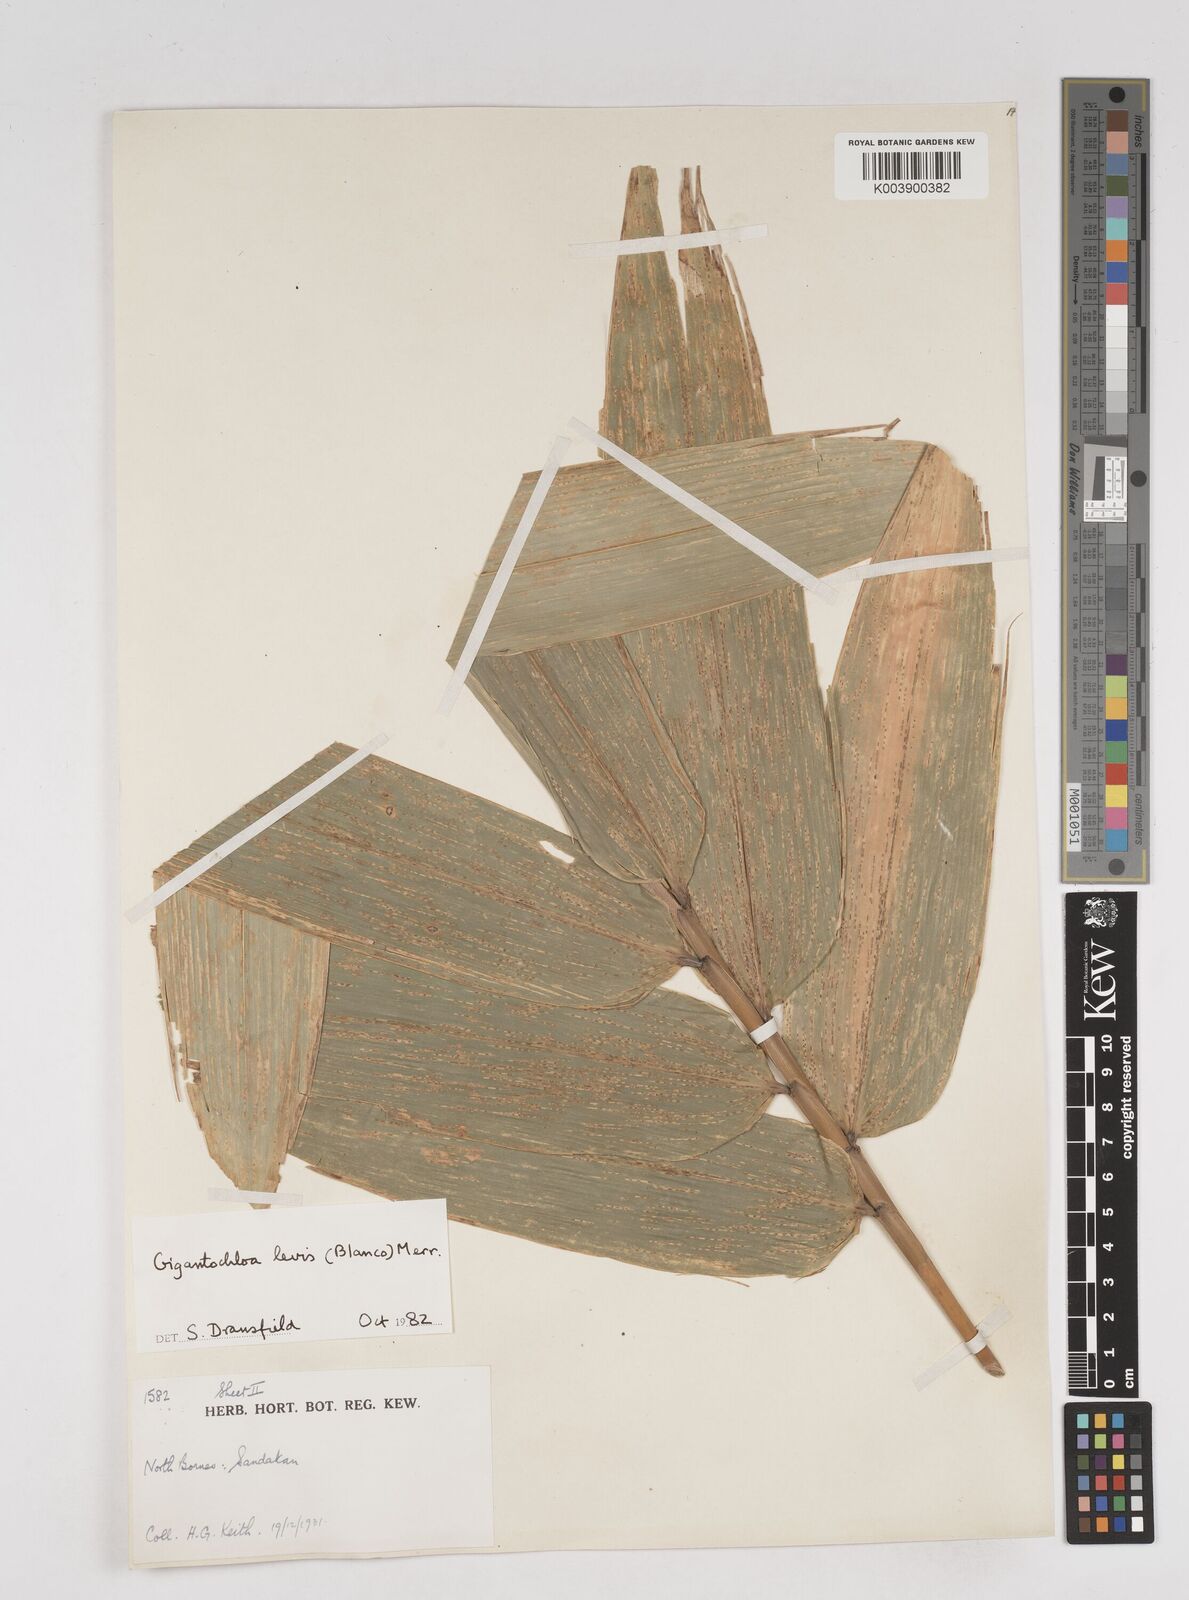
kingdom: Plantae
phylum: Tracheophyta
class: Liliopsida
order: Poales
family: Poaceae
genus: Gigantochloa
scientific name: Gigantochloa levis
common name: Smooth-shoot gigantochloa
